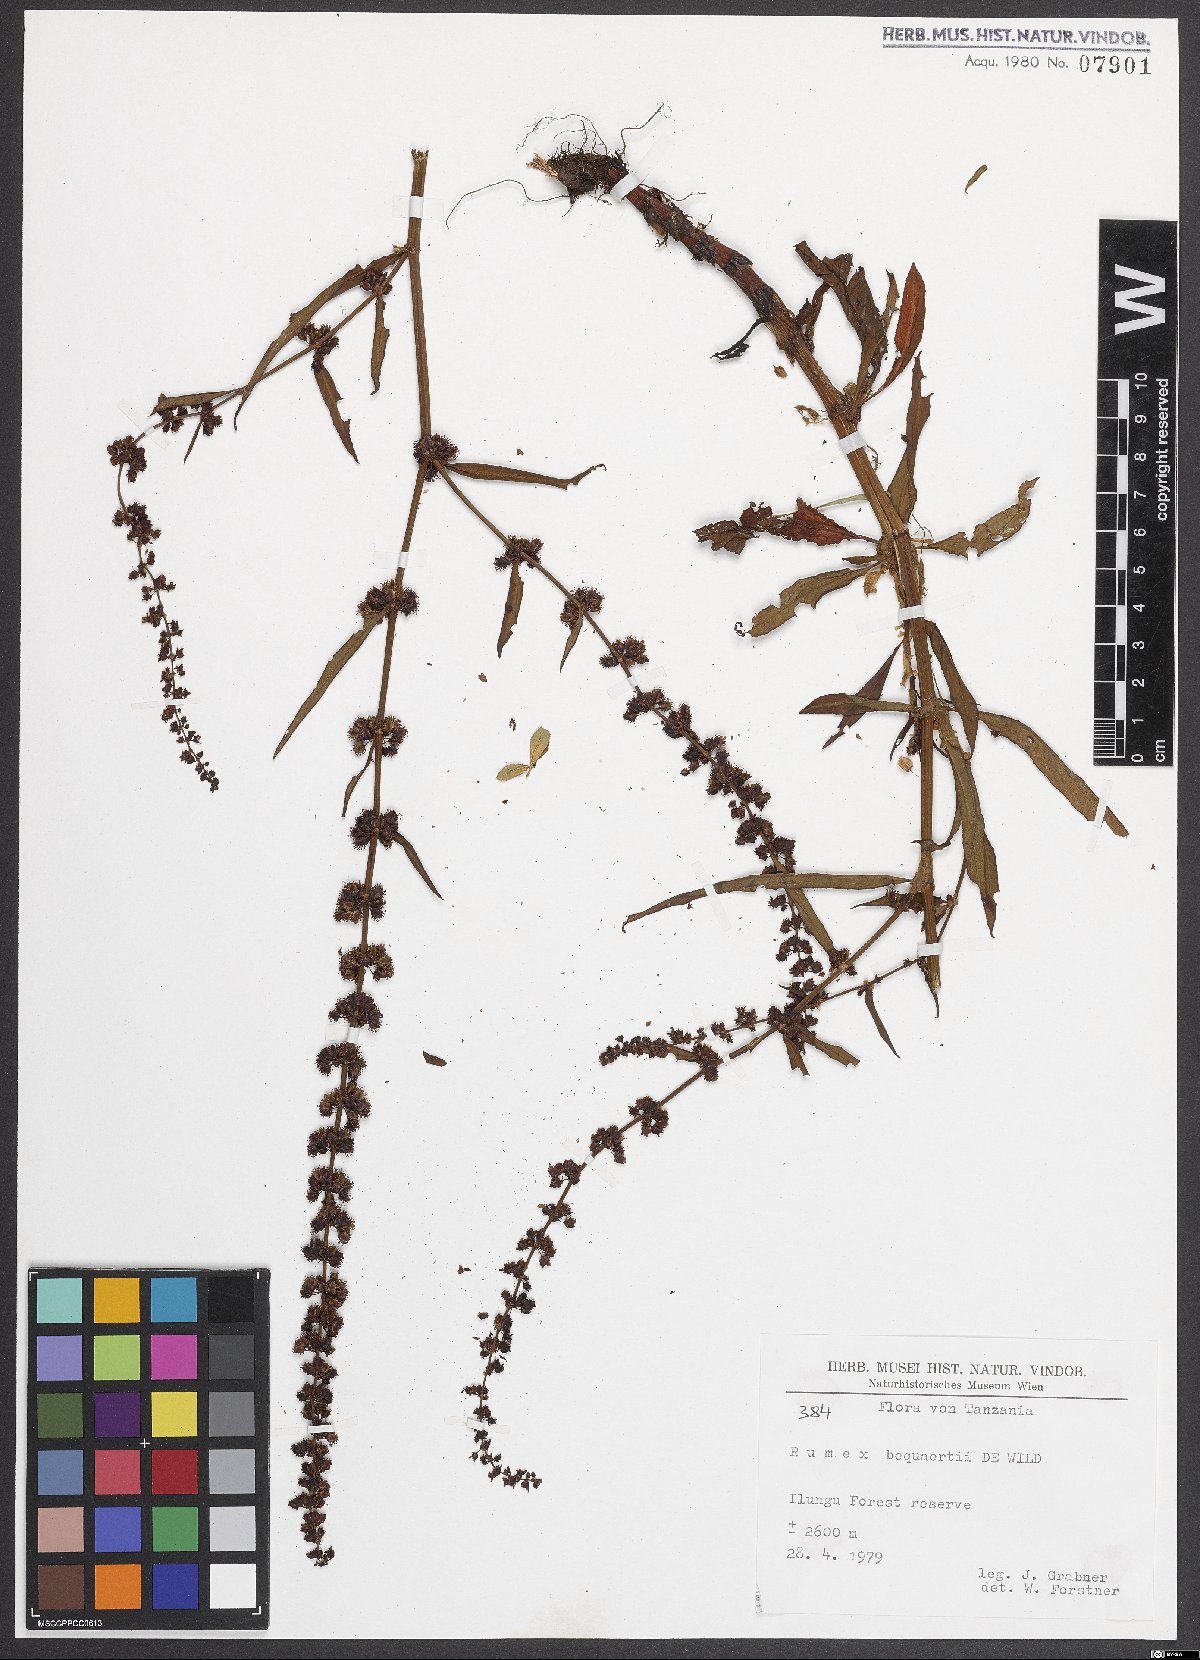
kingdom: Plantae
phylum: Tracheophyta
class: Magnoliopsida
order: Caryophyllales
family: Polygonaceae
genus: Rumex
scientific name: Rumex bequaertii
